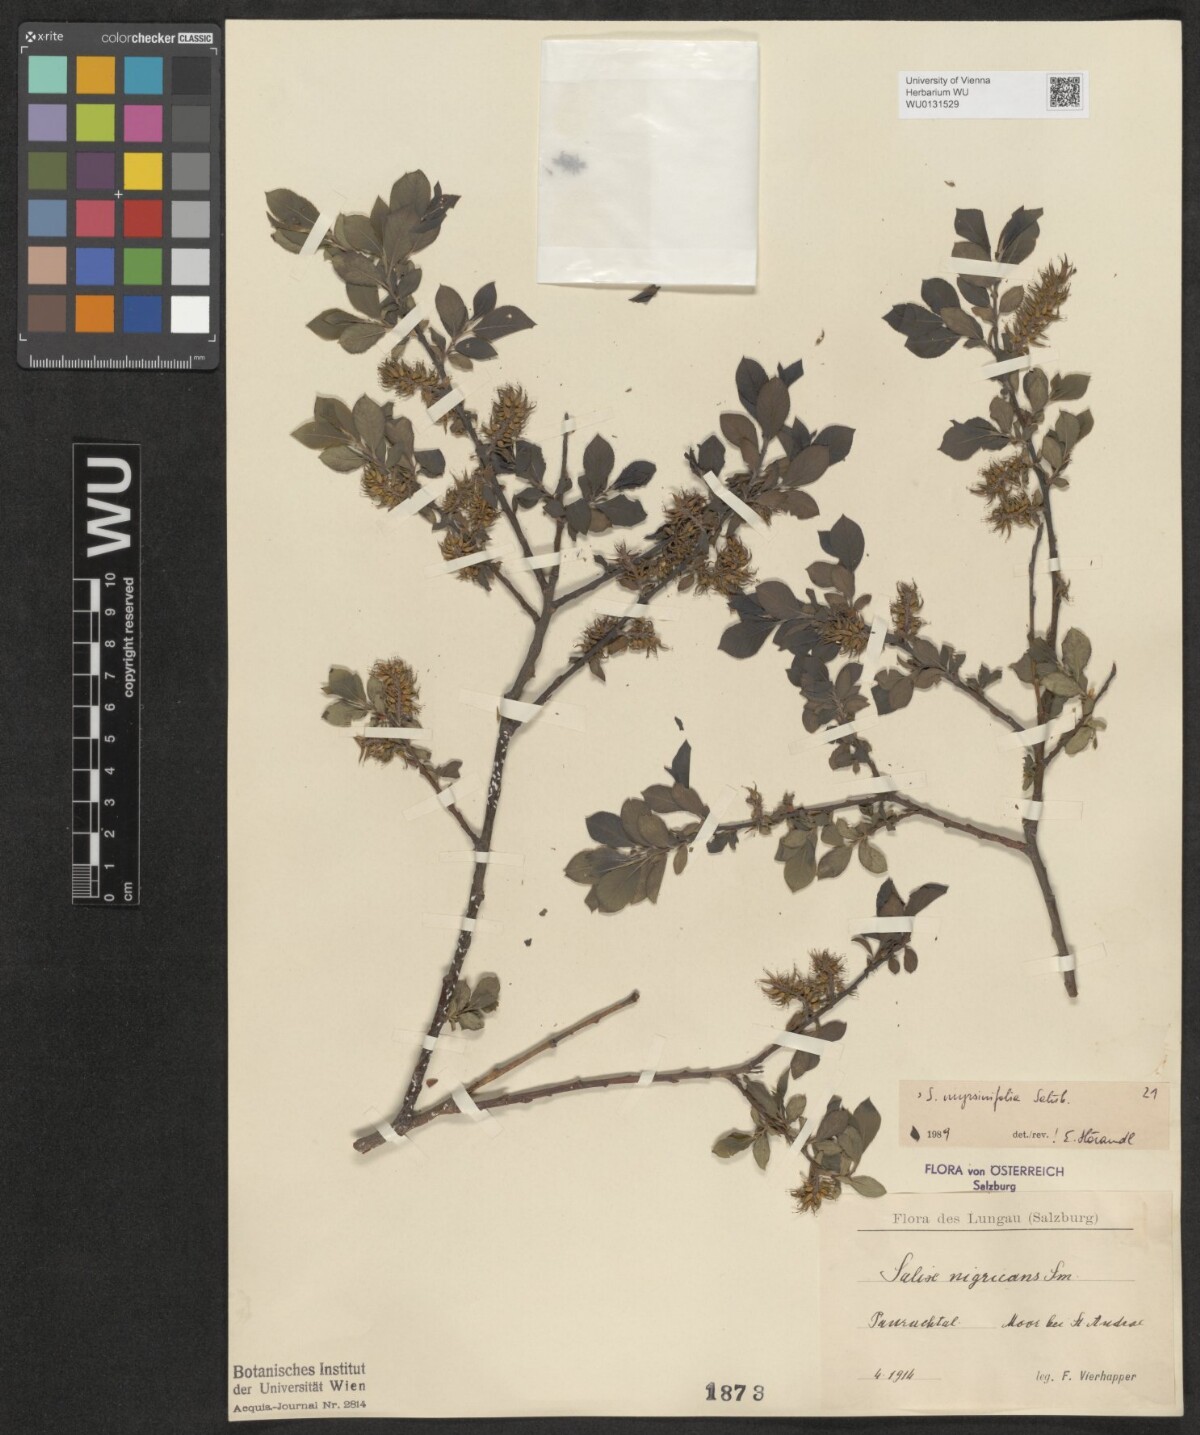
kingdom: Plantae
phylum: Tracheophyta
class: Magnoliopsida
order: Malpighiales
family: Salicaceae
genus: Salix
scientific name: Salix myrsinifolia
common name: Dark-leaved willow
